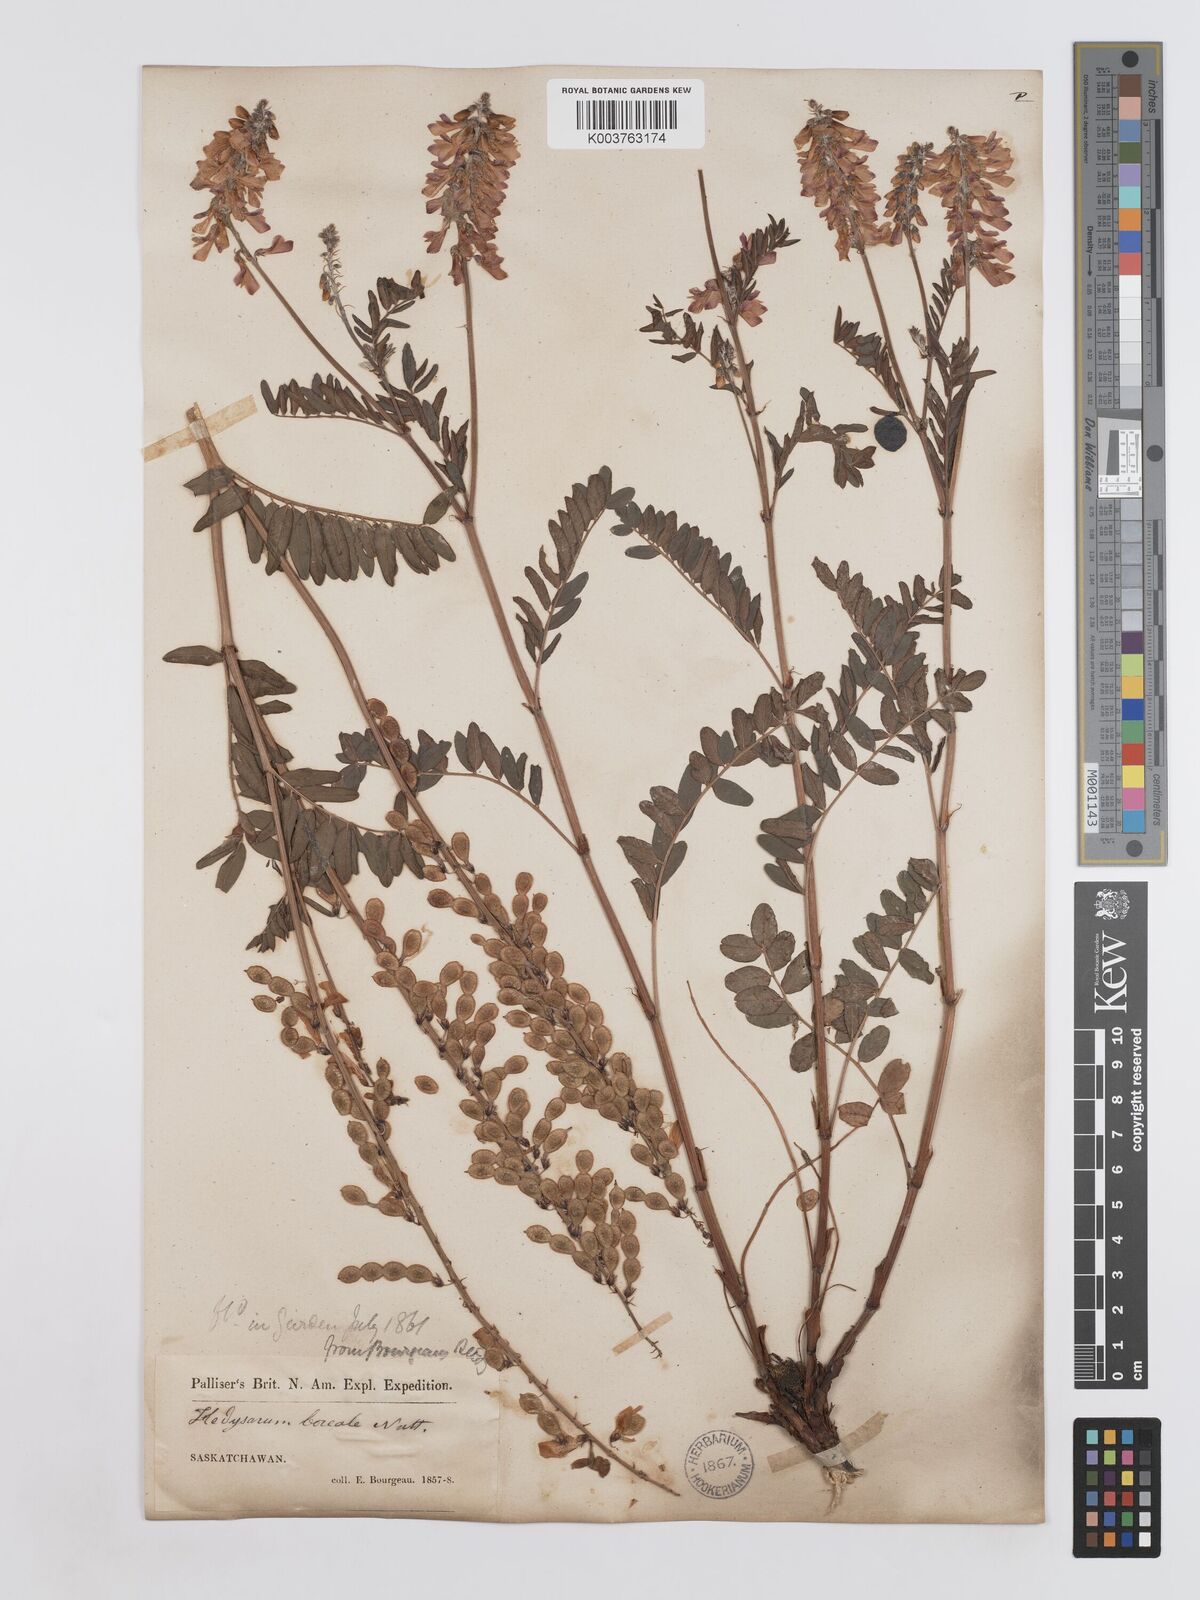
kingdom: Plantae
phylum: Tracheophyta
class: Magnoliopsida
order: Fabales
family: Fabaceae
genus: Hedysarum
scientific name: Hedysarum boreale
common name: Northern sweet-vetch
